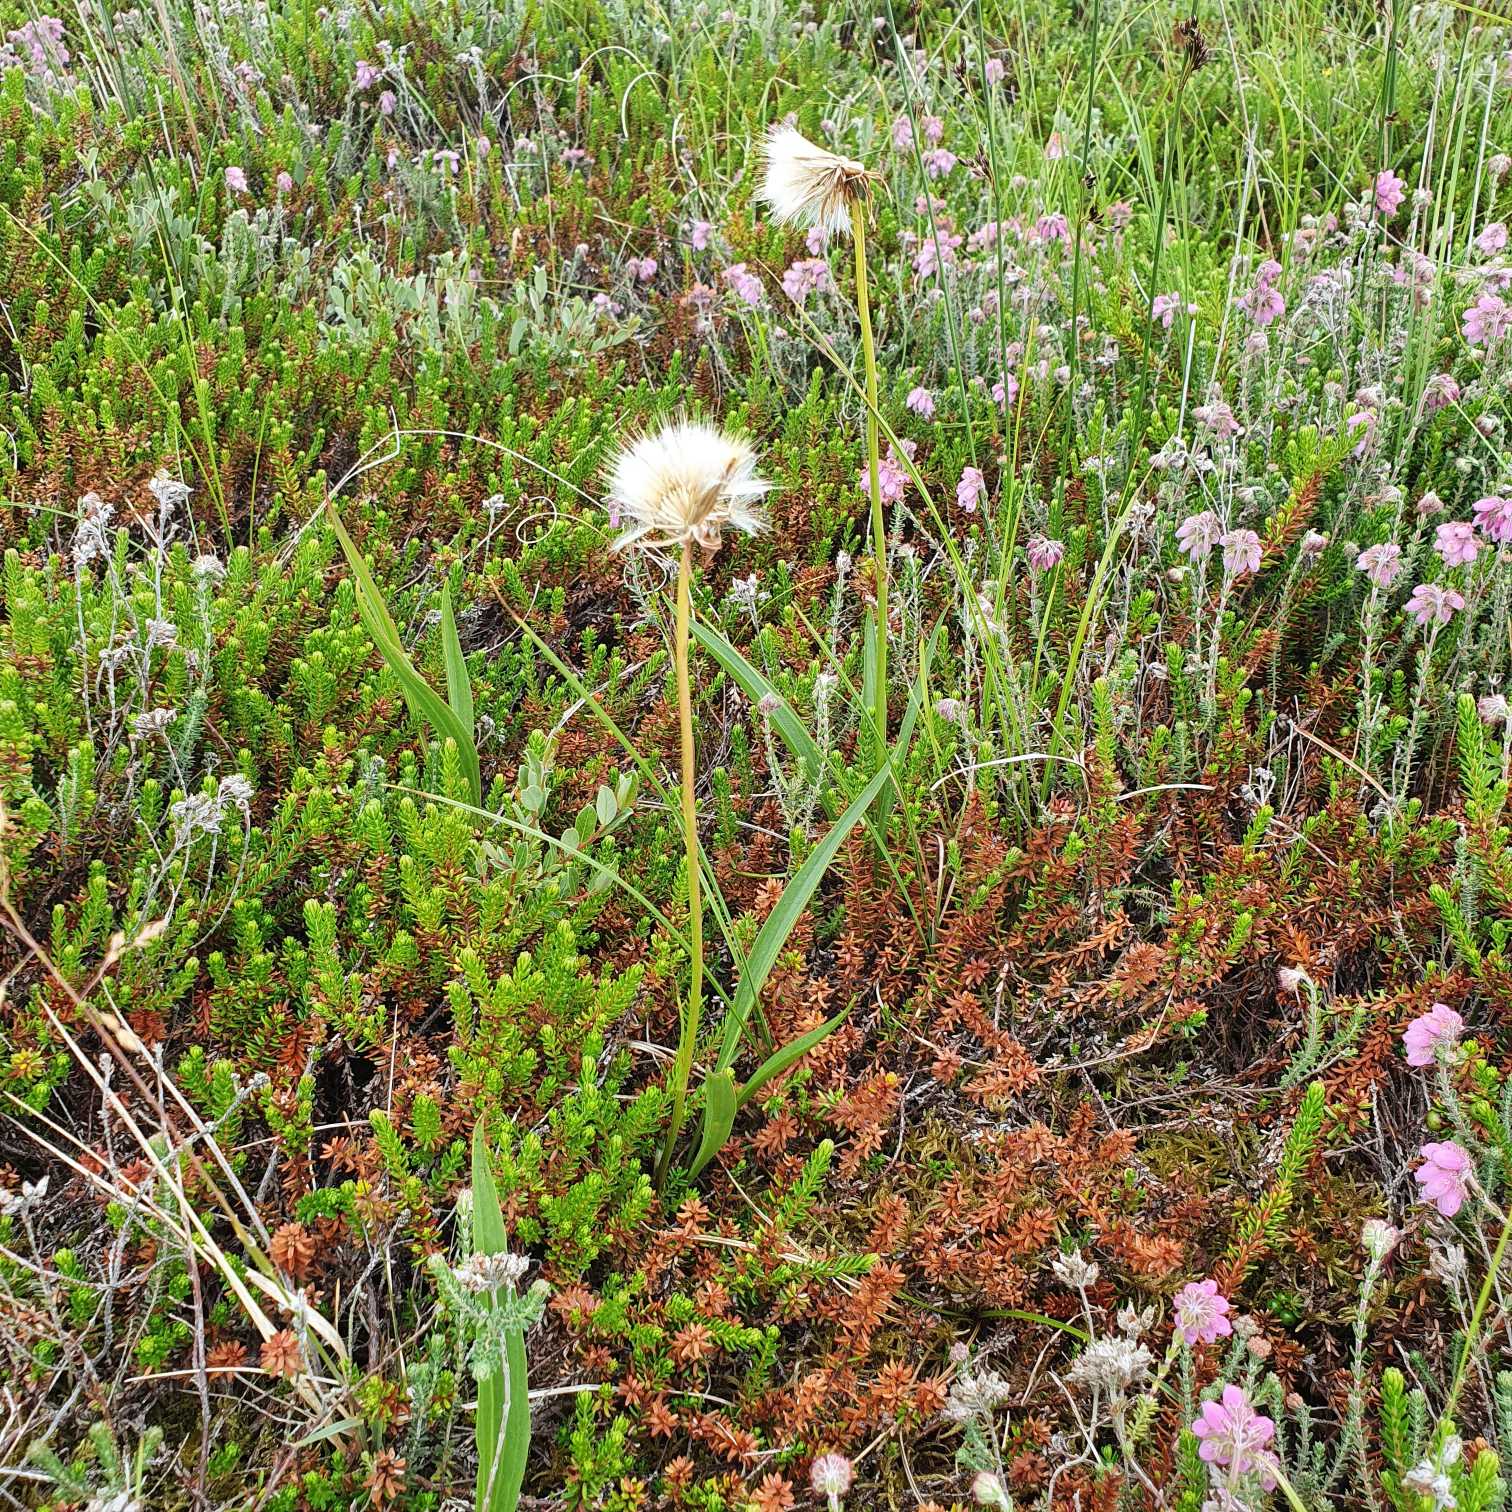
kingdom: Plantae
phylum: Tracheophyta
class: Magnoliopsida
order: Asterales
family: Asteraceae
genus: Scorzonera
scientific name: Scorzonera humilis
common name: Lav skorsoner
